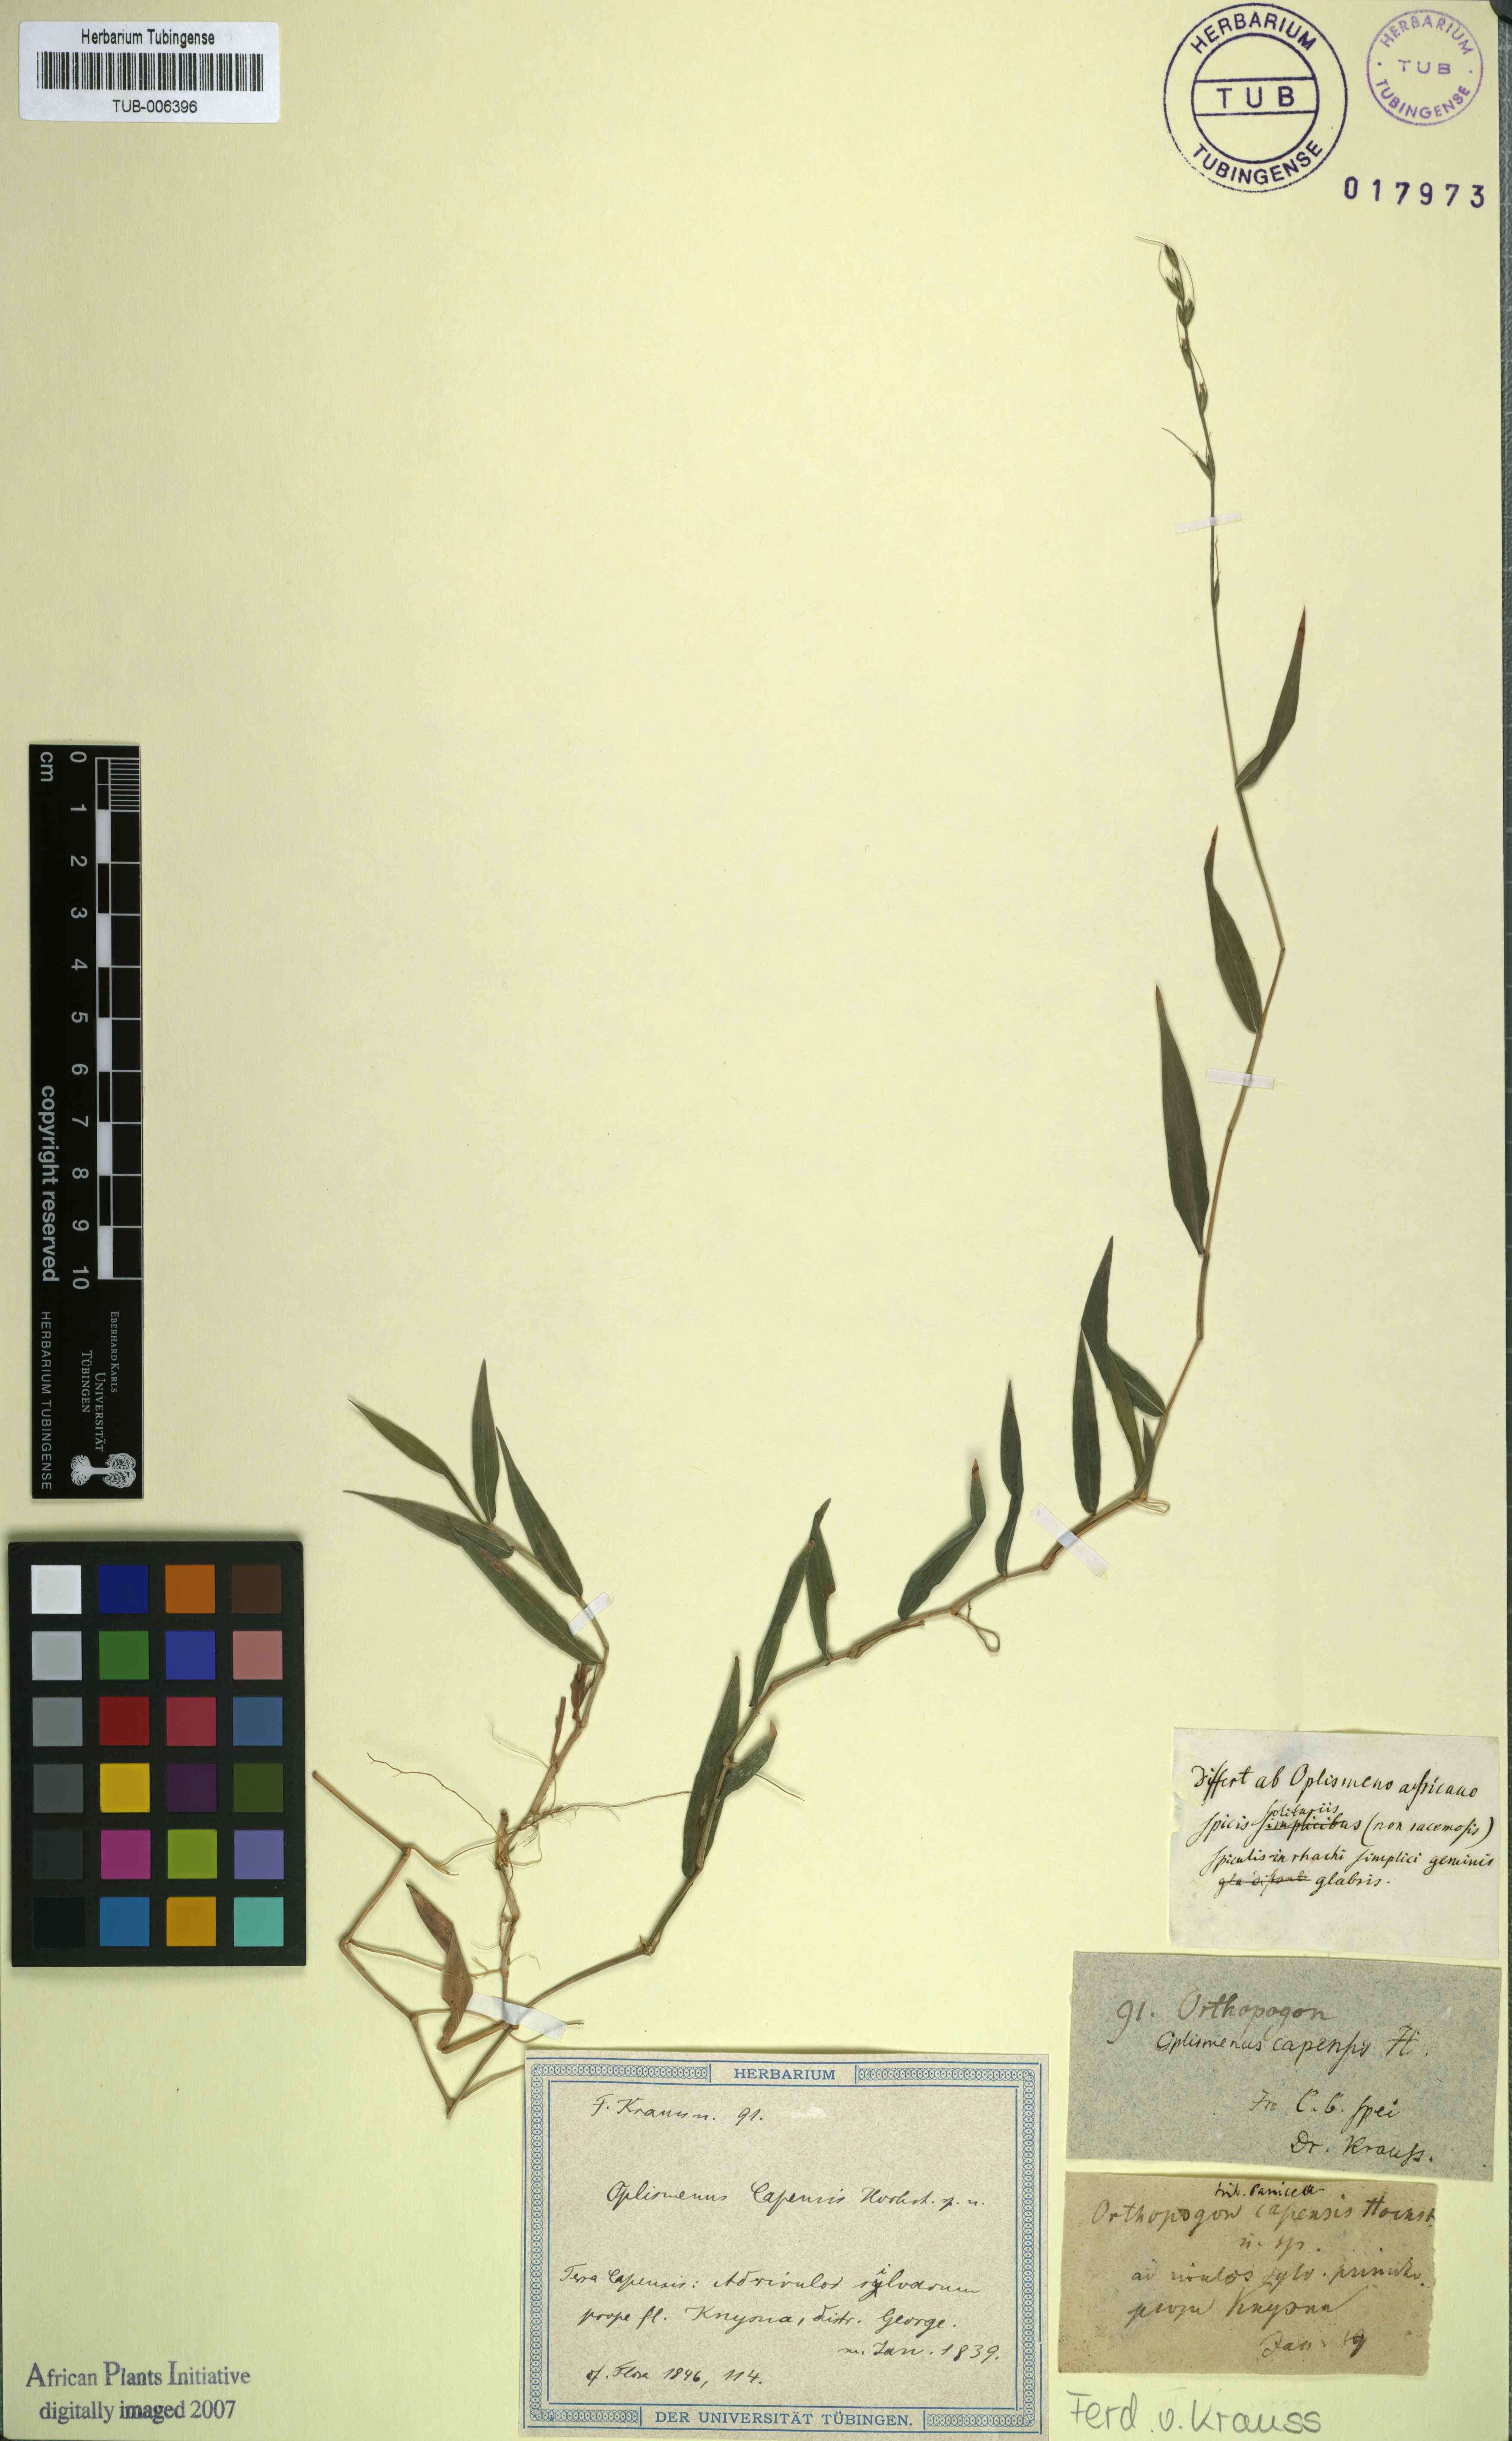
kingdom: Plantae
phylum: Tracheophyta
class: Liliopsida
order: Poales
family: Poaceae
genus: Oplismenus
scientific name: Oplismenus undulatifolius
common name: Wavyleaf basketgrass
